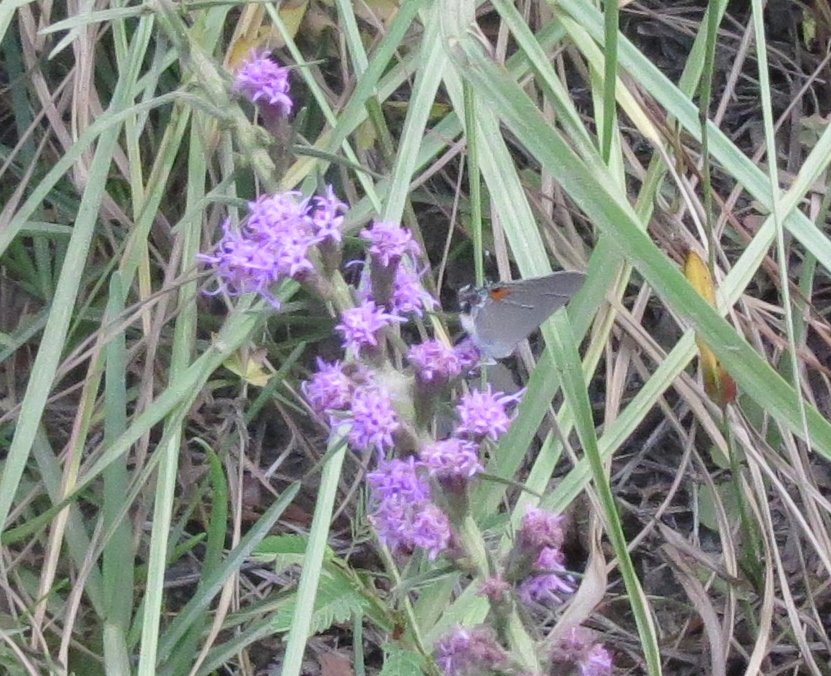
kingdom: Animalia
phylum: Arthropoda
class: Insecta
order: Lepidoptera
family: Lycaenidae
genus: Strymon
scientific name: Strymon melinus
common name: Gray Hairstreak
